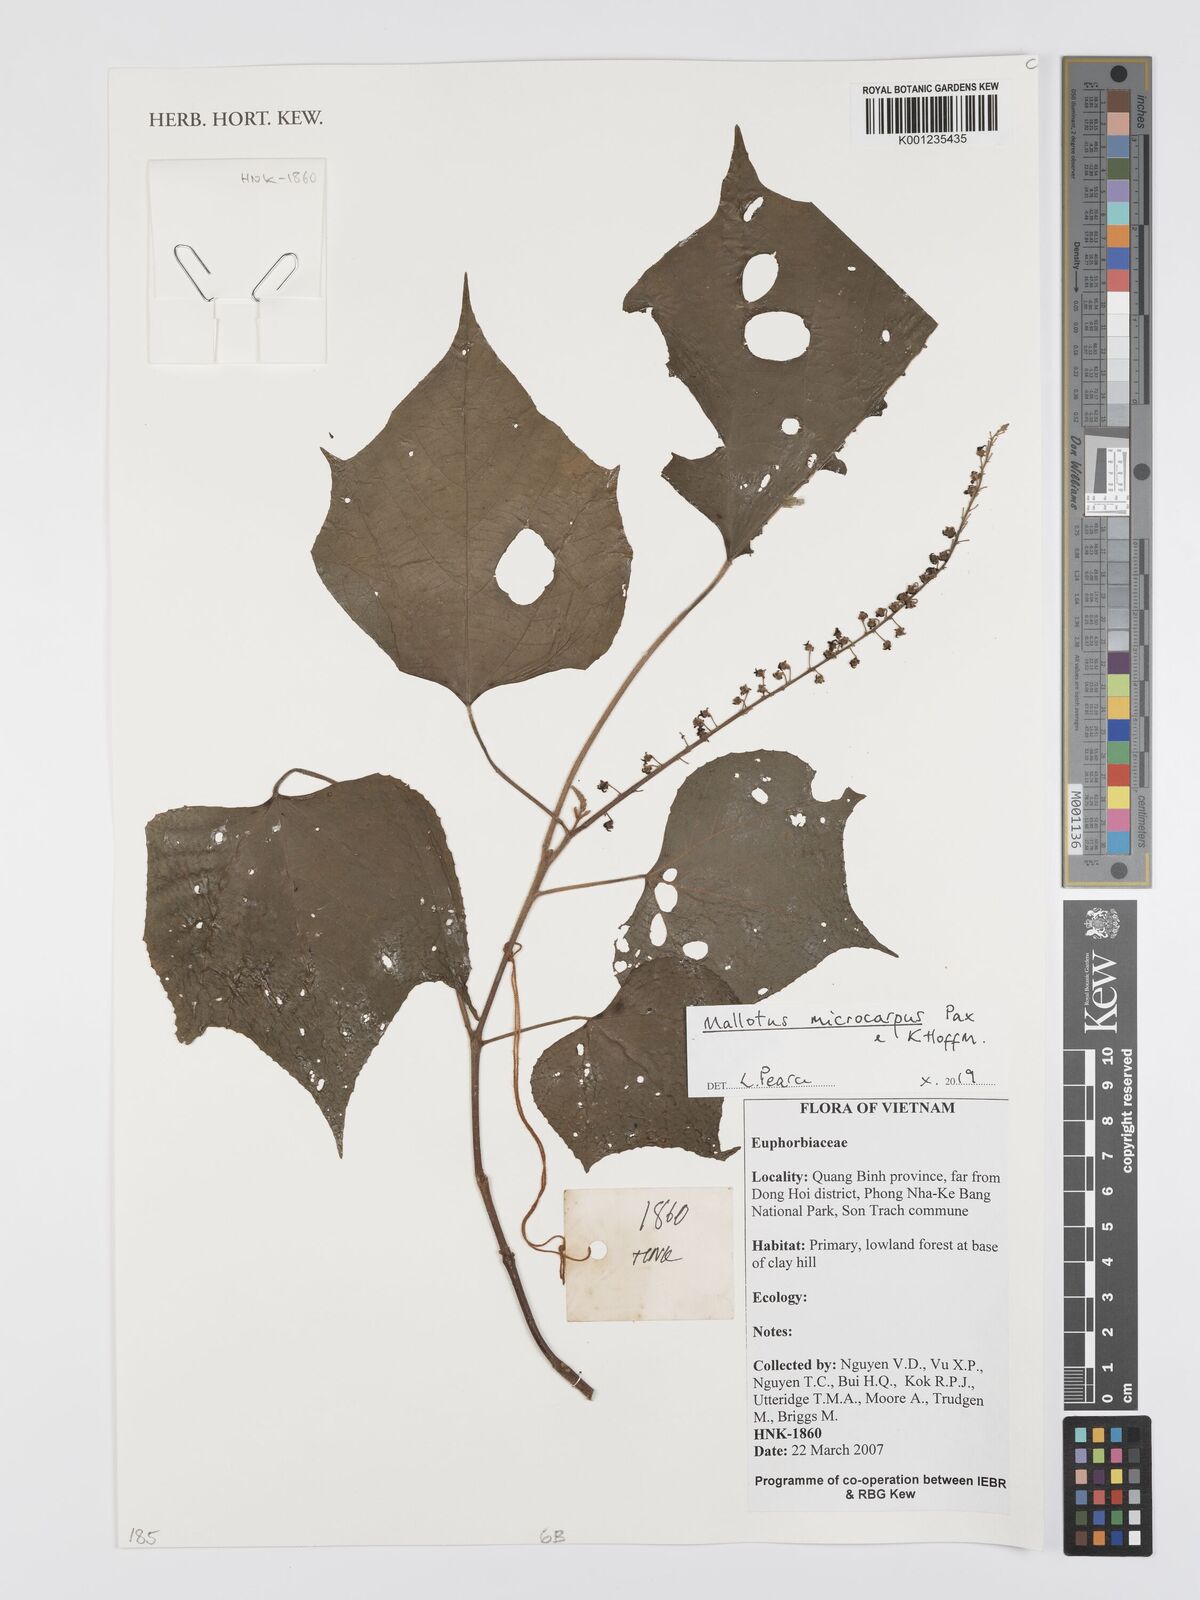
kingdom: Plantae
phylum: Tracheophyta
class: Magnoliopsida
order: Malpighiales
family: Euphorbiaceae
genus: Mallotus
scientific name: Mallotus microcarpus
